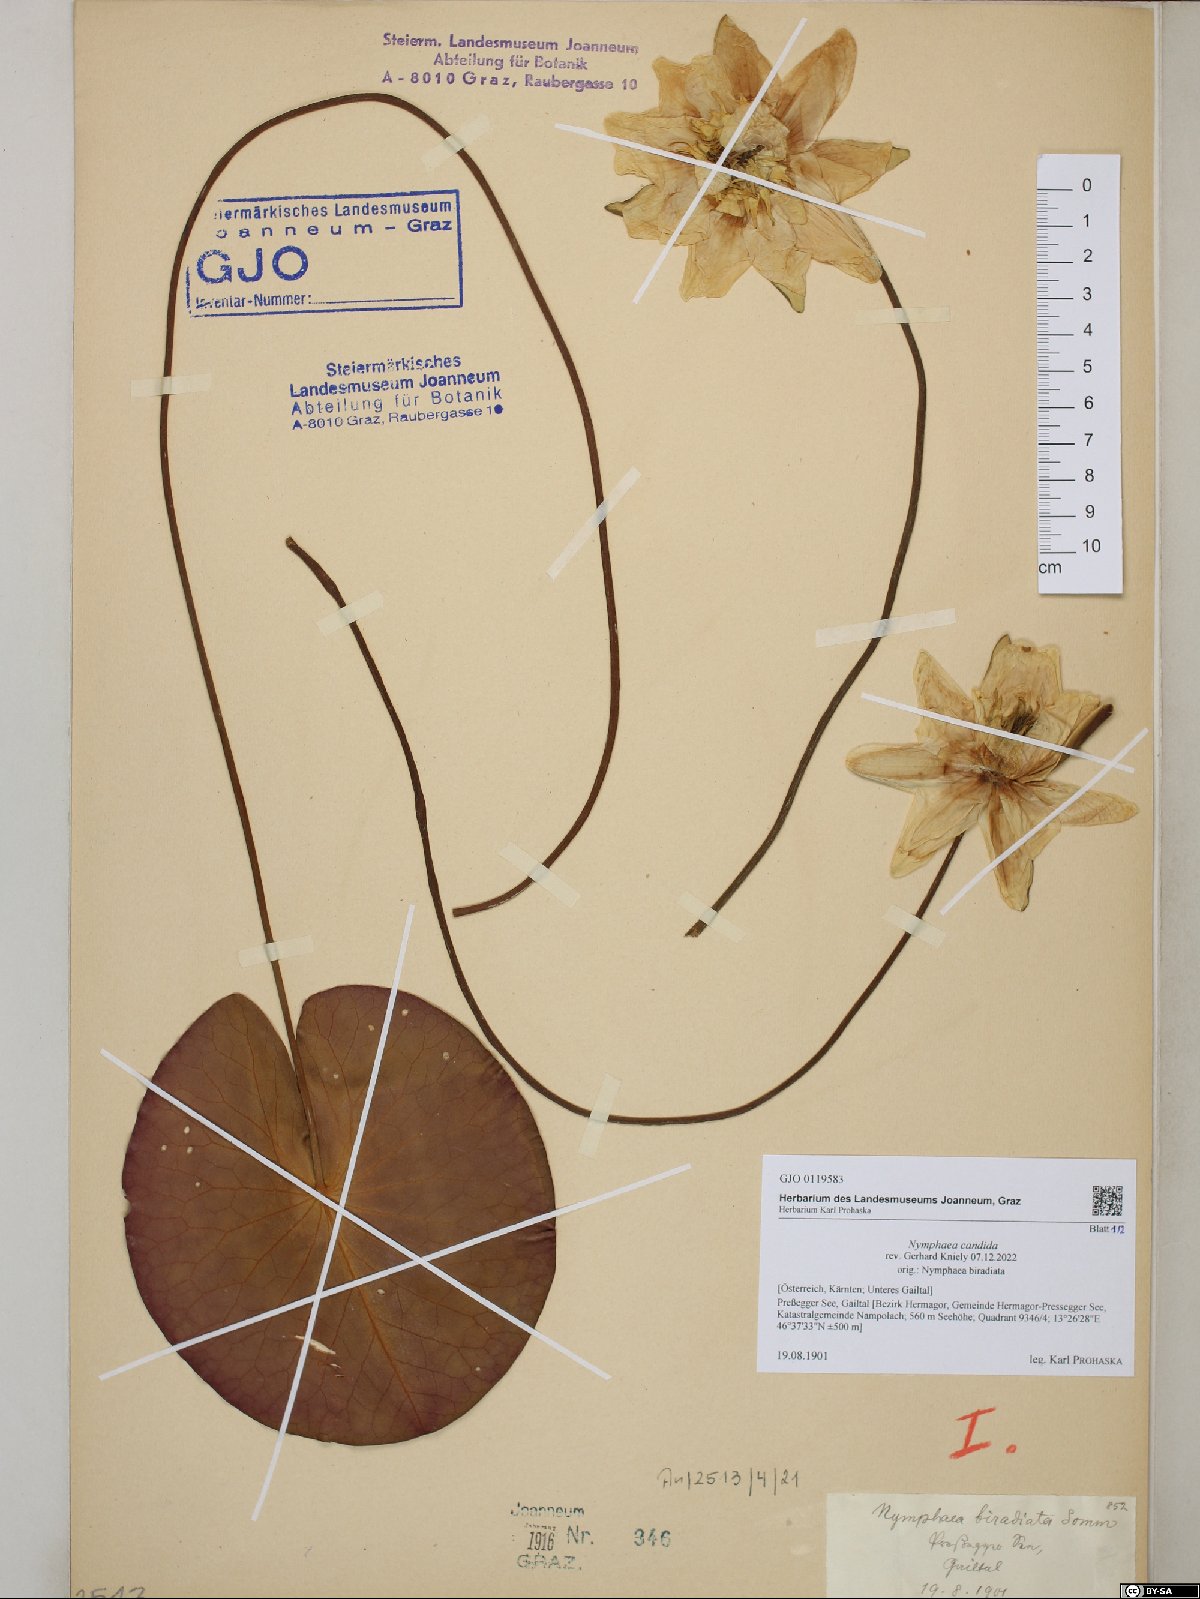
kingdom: Plantae
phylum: Tracheophyta
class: Magnoliopsida
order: Nymphaeales
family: Nymphaeaceae
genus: Nymphaea
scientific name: Nymphaea candida
